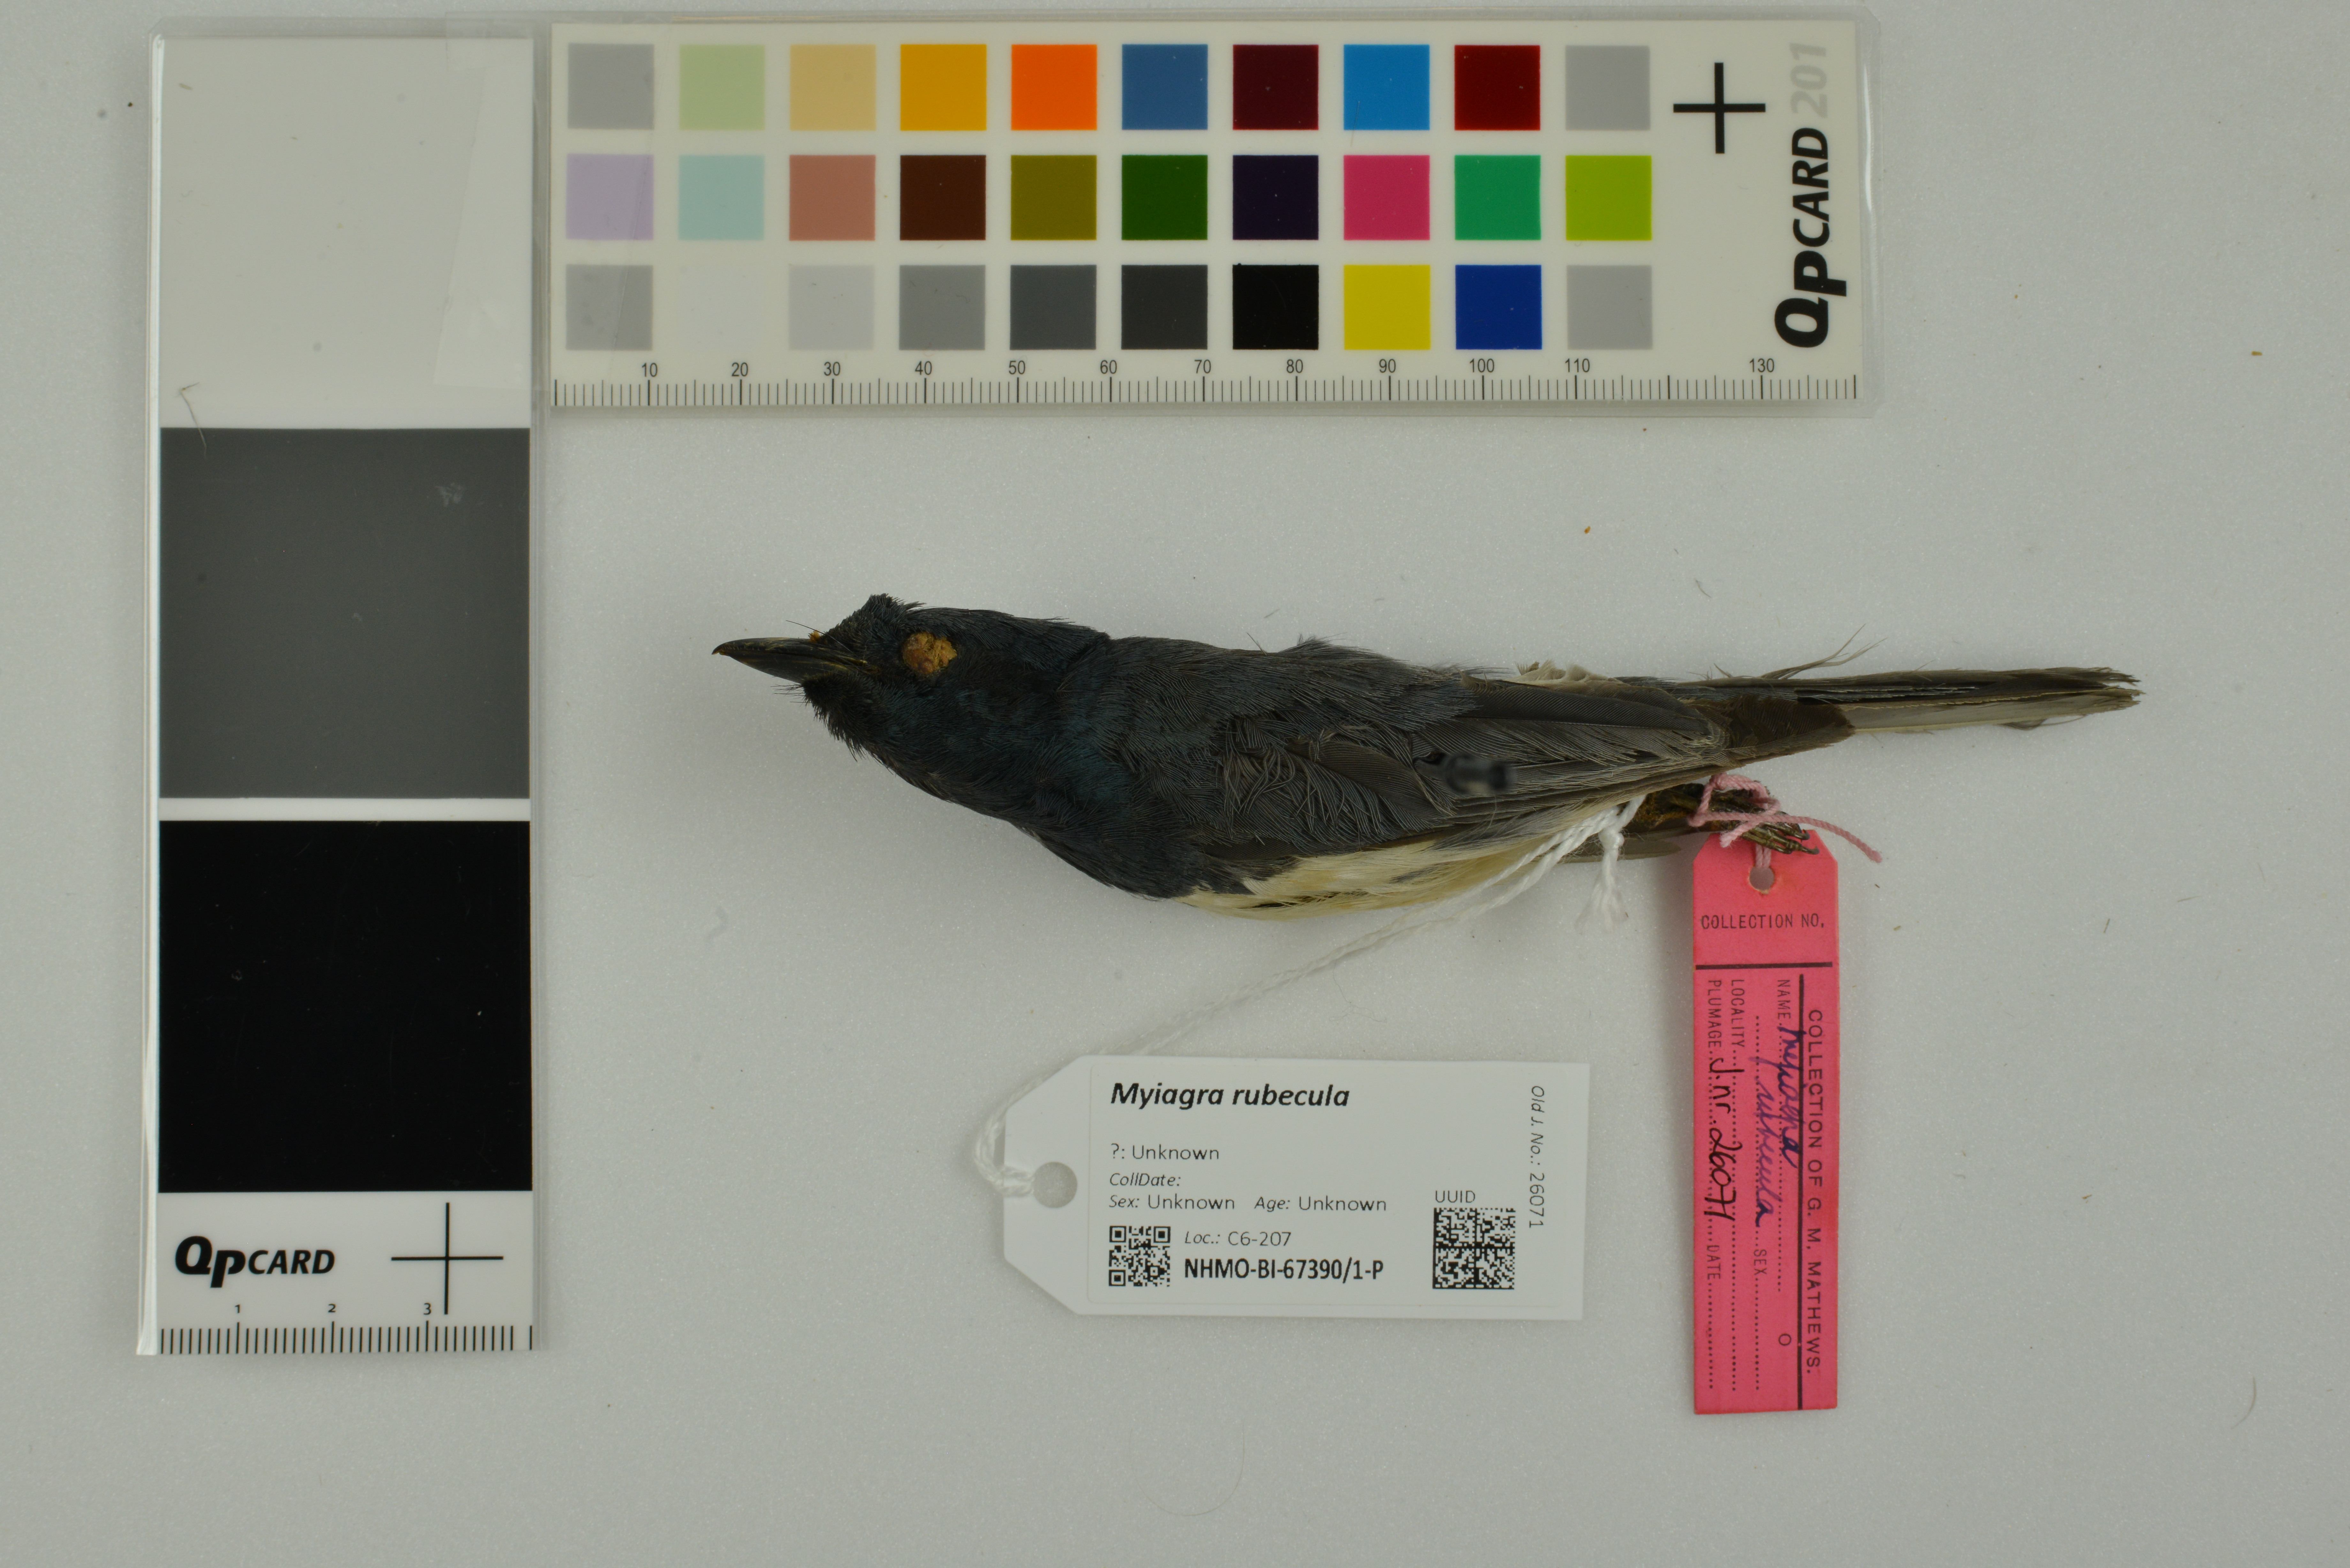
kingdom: Animalia
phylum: Chordata
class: Aves
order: Passeriformes
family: Monarchidae
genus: Myiagra
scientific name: Myiagra rubecula
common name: Leaden flycatcher
